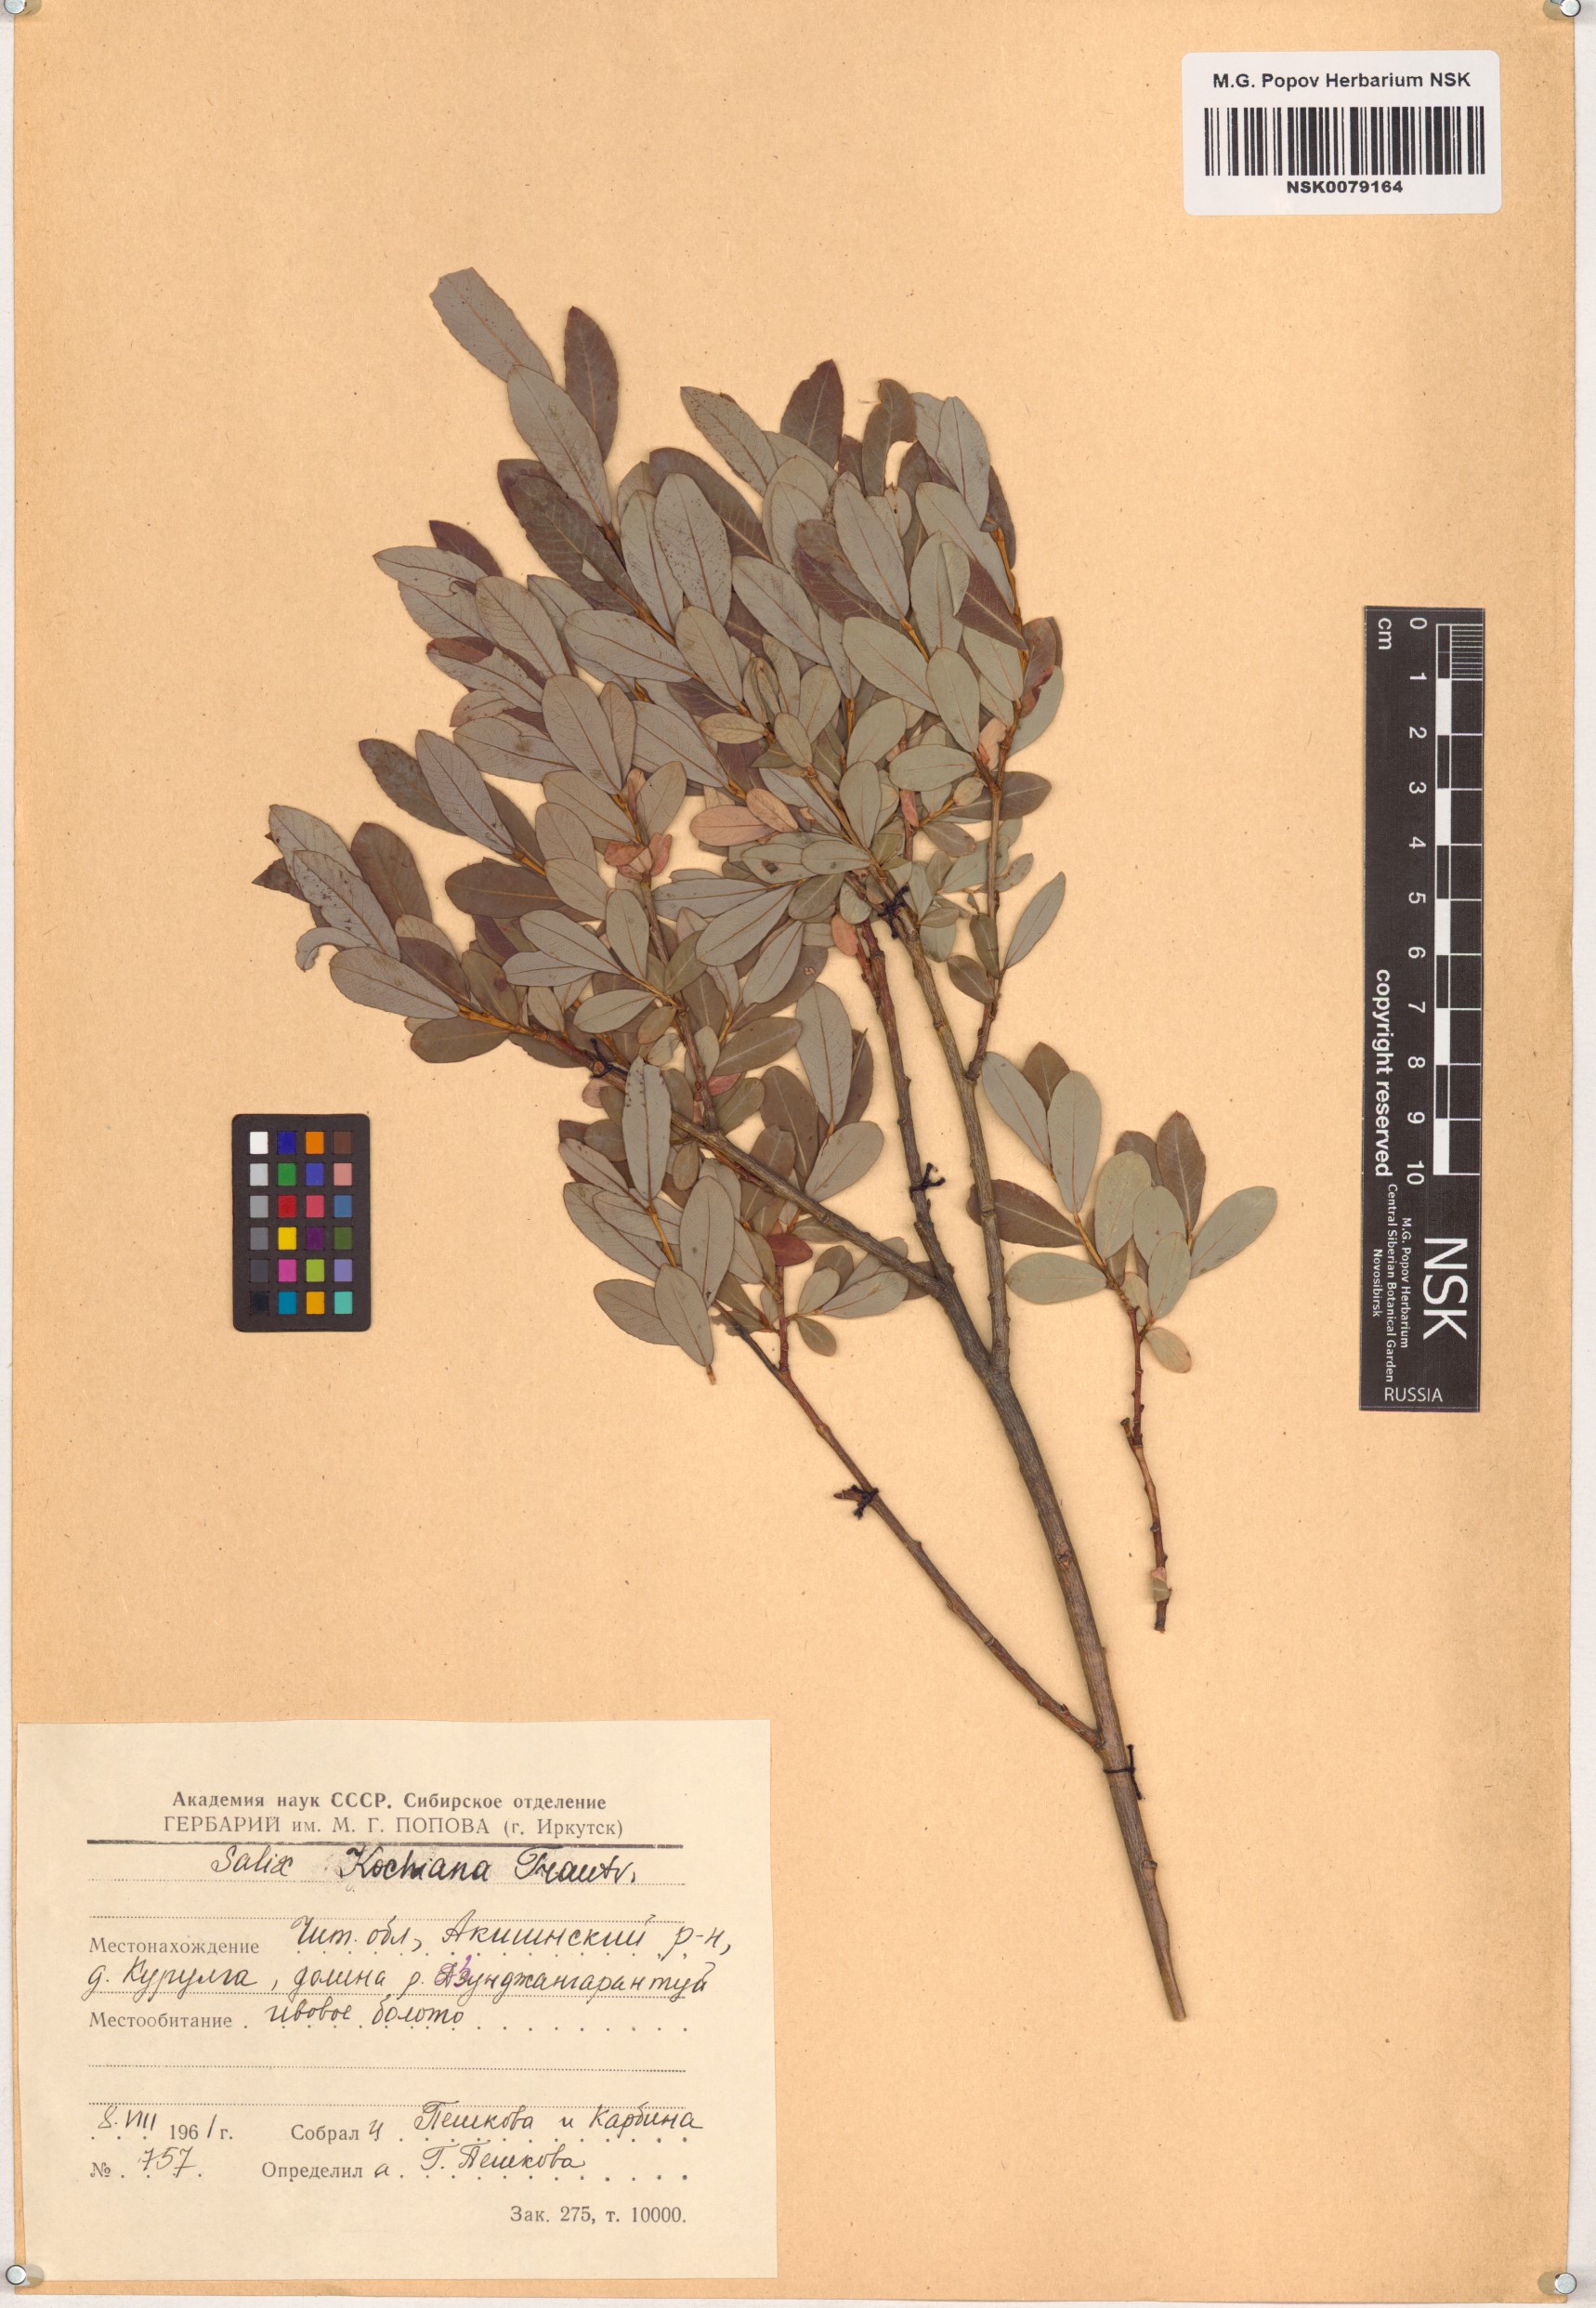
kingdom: Plantae
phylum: Tracheophyta
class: Magnoliopsida
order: Malpighiales
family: Salicaceae
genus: Salix
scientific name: Salix kochiana
